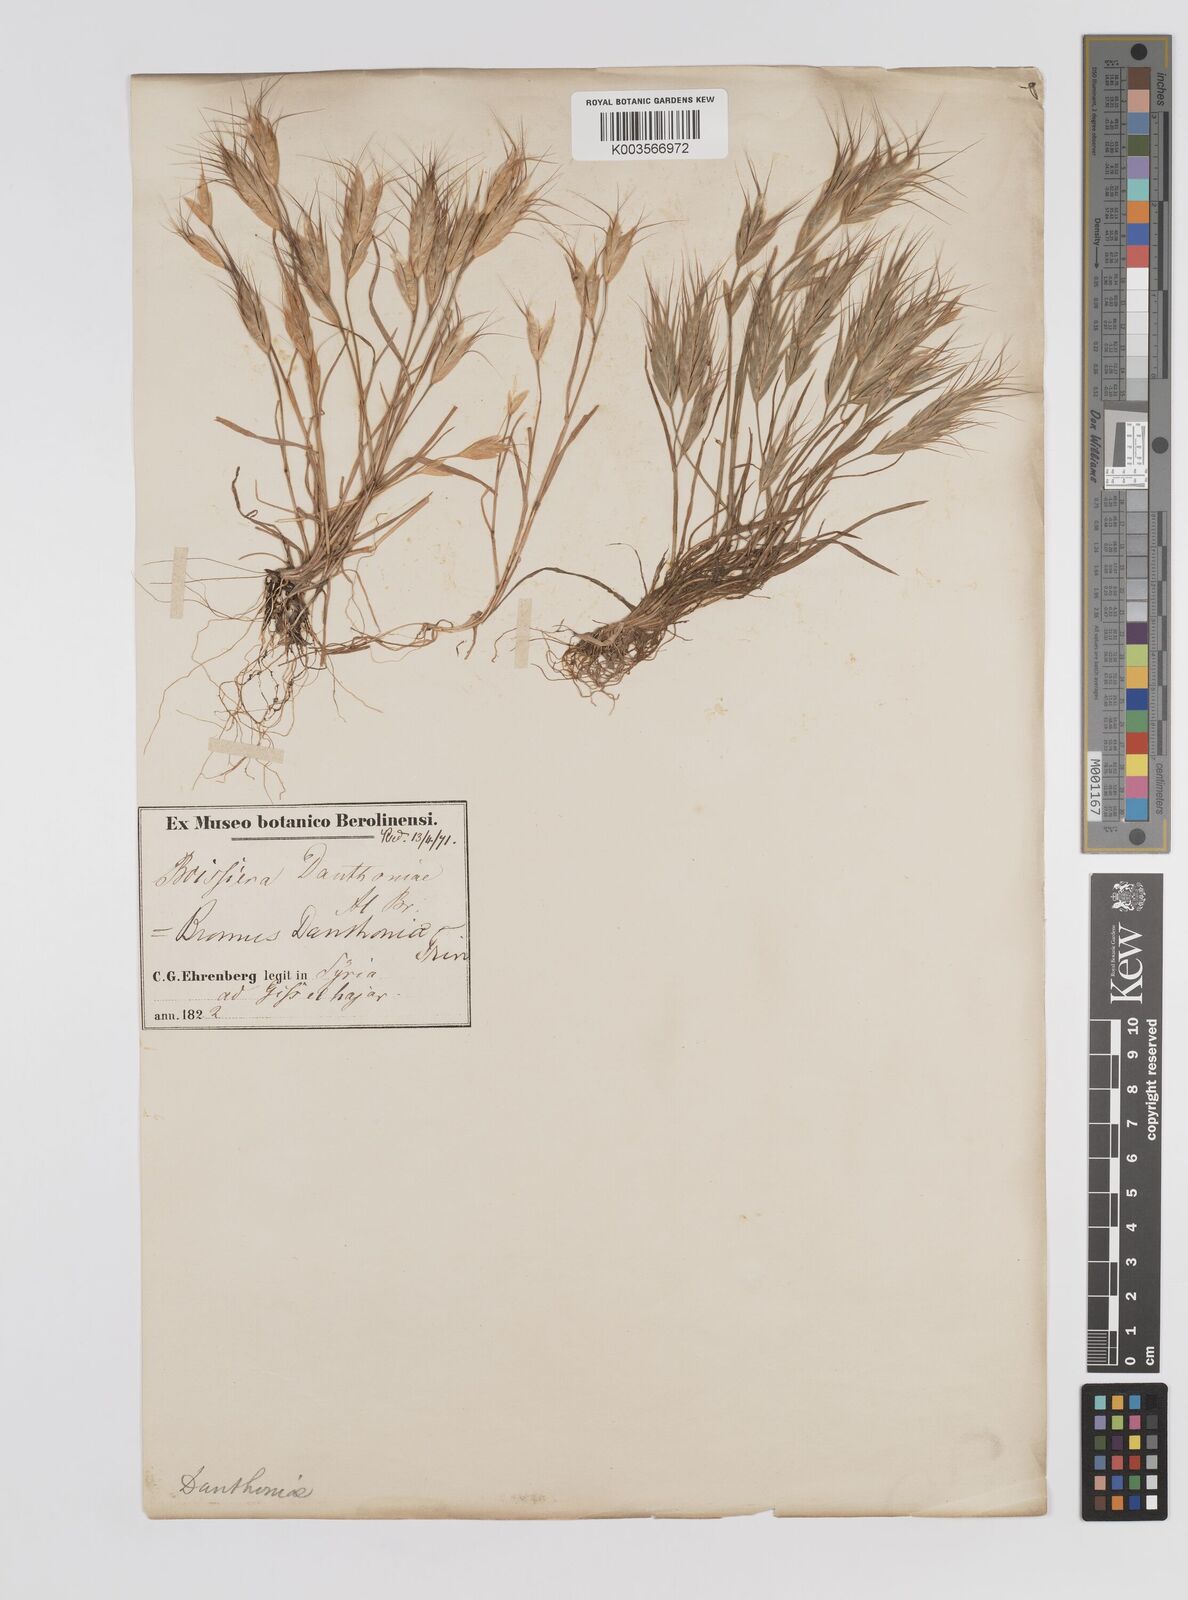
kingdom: Plantae
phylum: Tracheophyta
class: Liliopsida
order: Poales
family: Poaceae
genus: Bromus
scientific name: Bromus danthoniae
